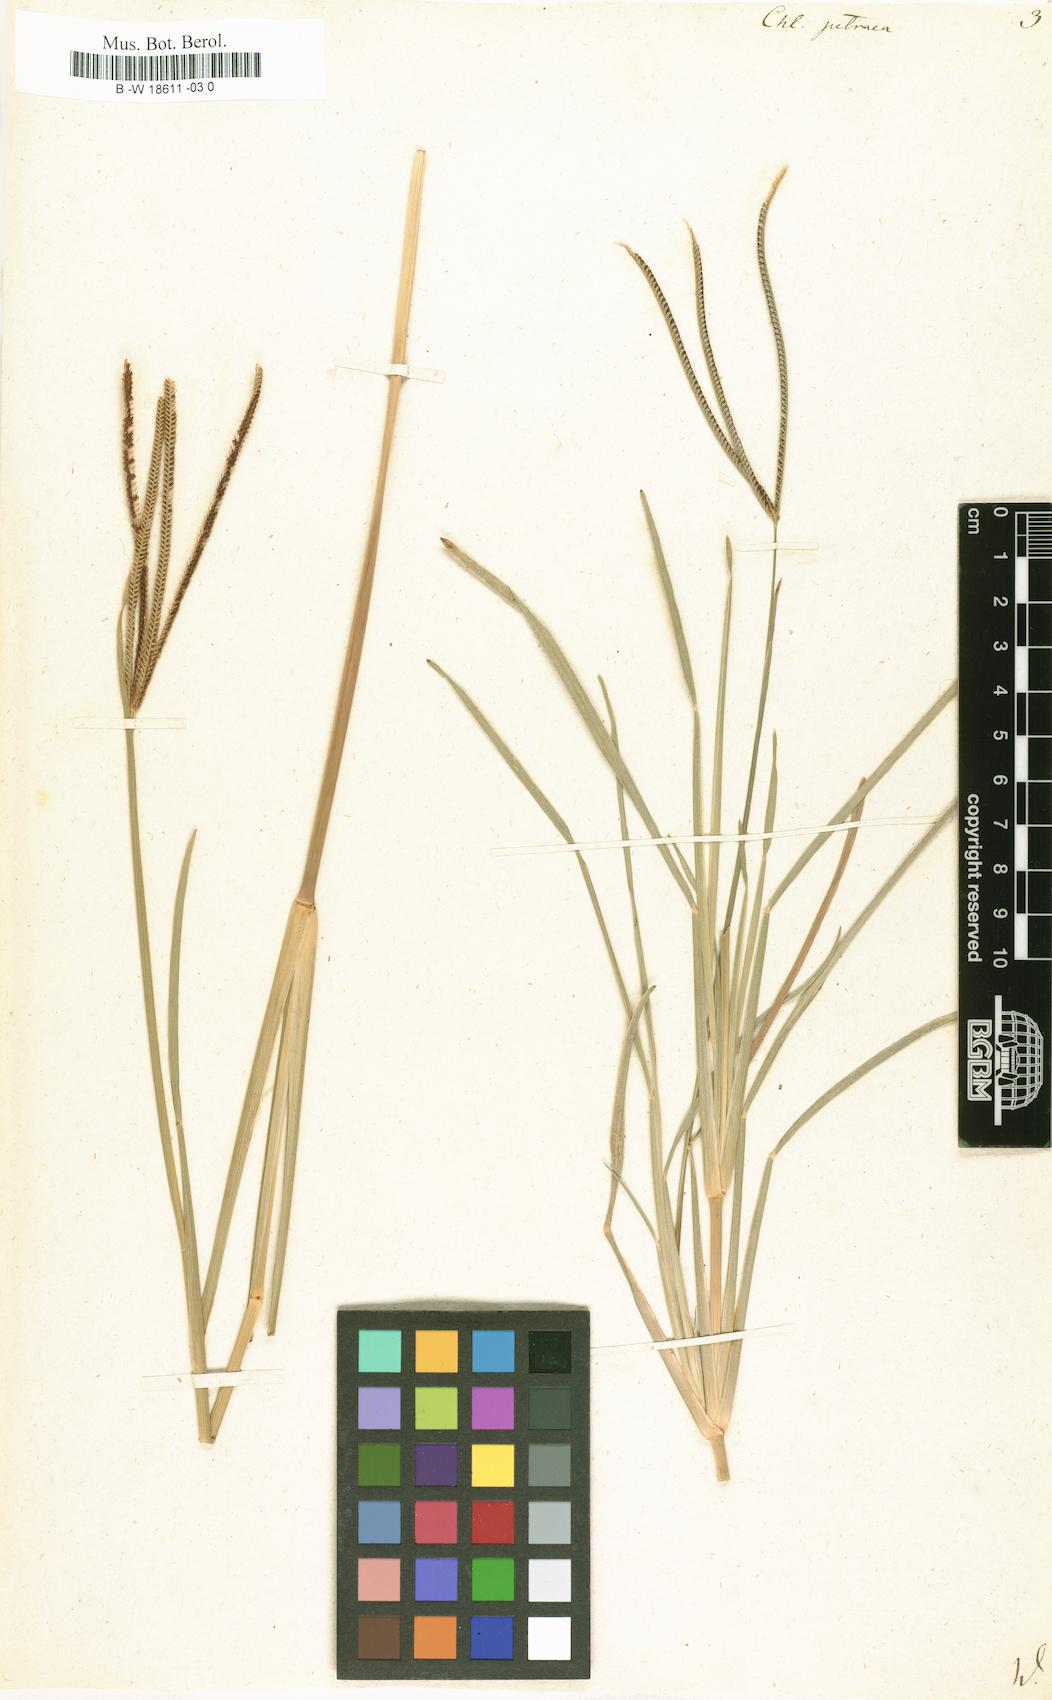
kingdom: Plantae
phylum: Tracheophyta
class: Liliopsida
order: Poales
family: Poaceae
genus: Eustachys
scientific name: Eustachys petraea
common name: Pinewoods fingergrass
